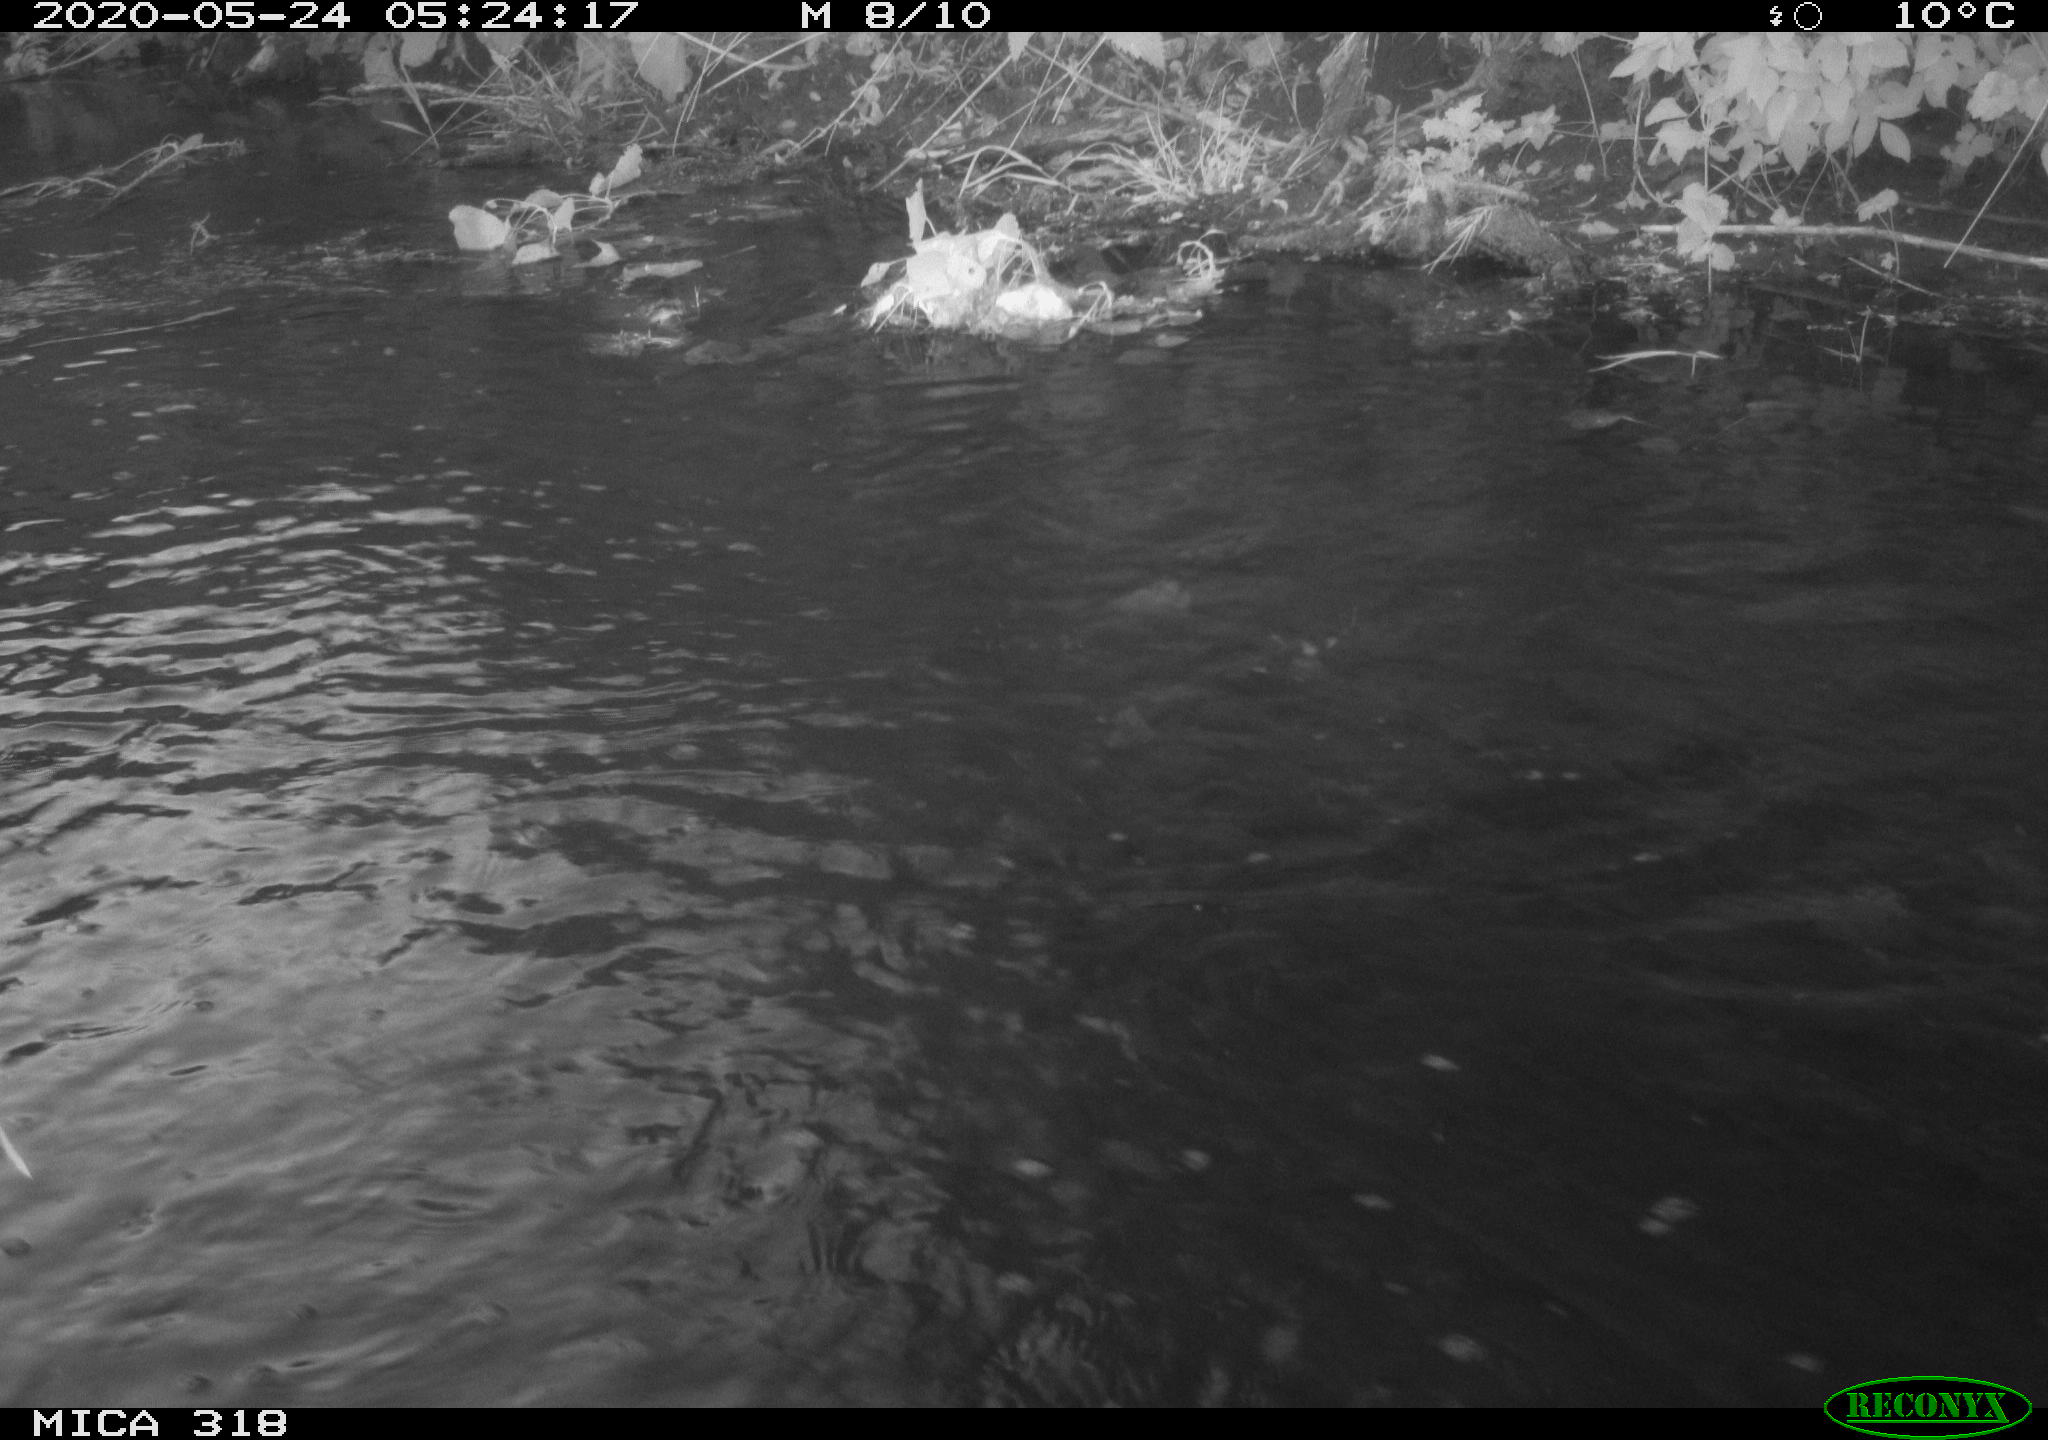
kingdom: Animalia
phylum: Chordata
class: Aves
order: Gruiformes
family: Rallidae
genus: Gallinula
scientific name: Gallinula chloropus
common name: Common moorhen
